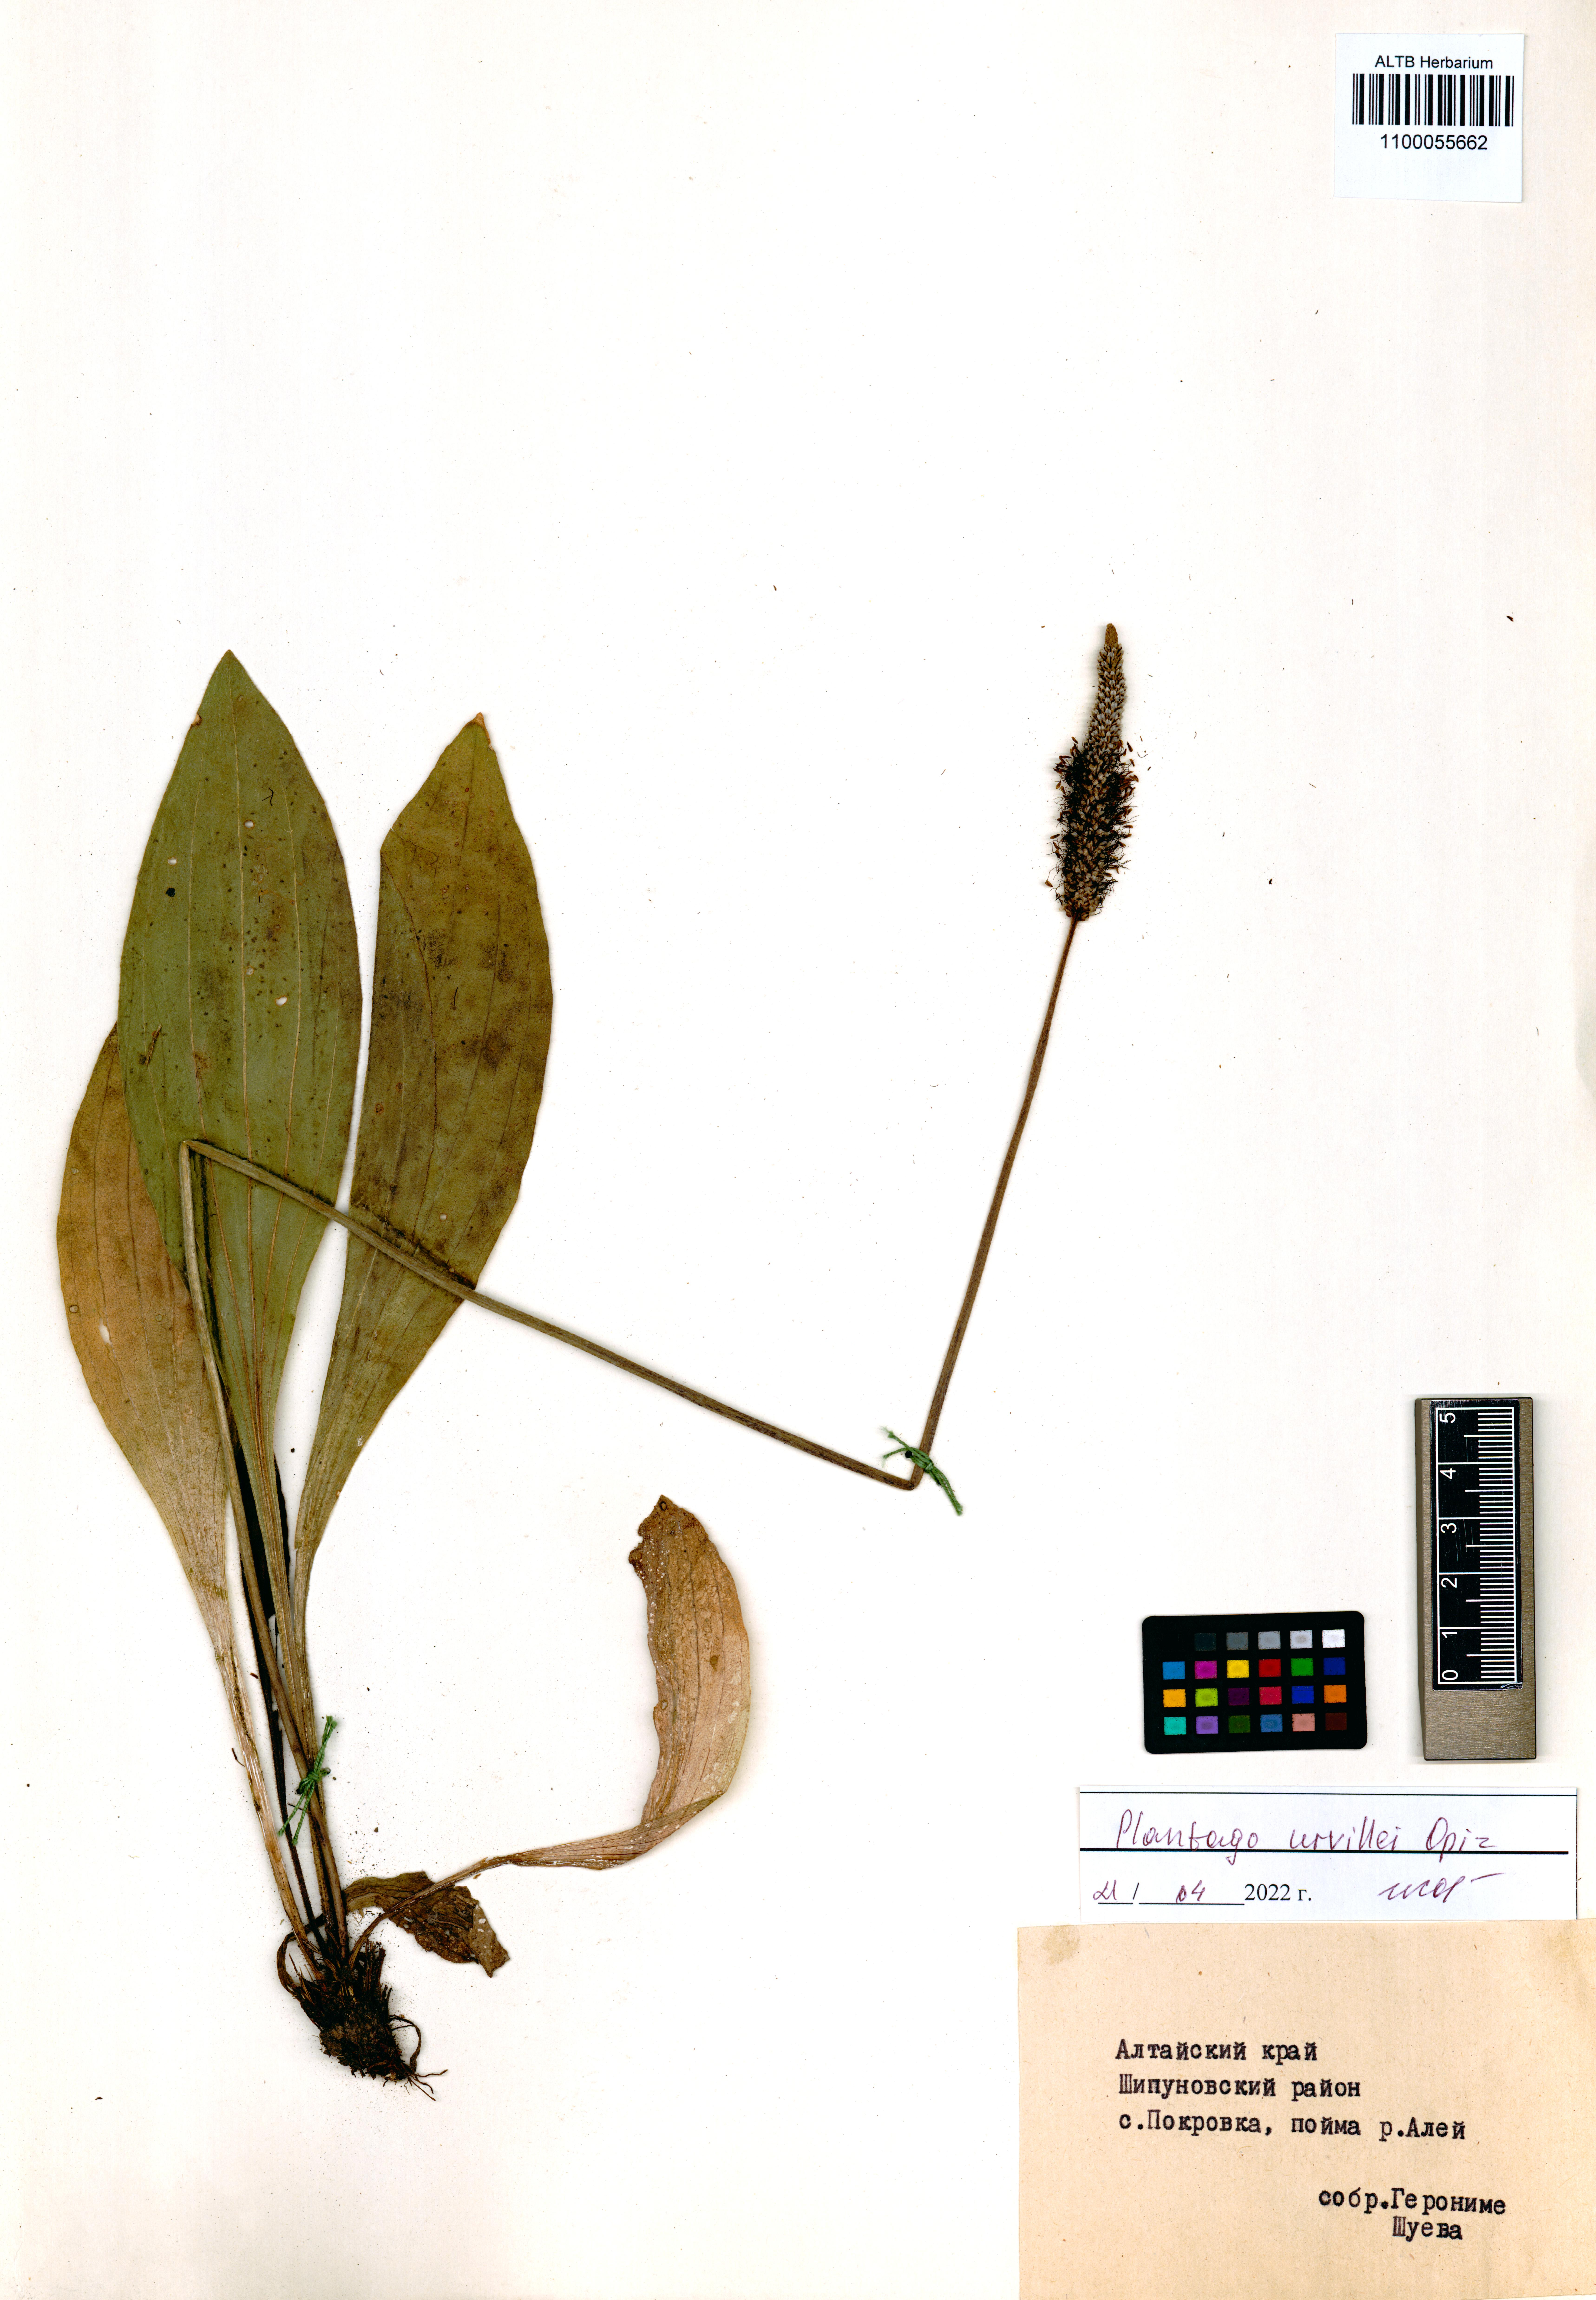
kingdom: Plantae
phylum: Tracheophyta
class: Magnoliopsida
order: Lamiales
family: Plantaginaceae
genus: Plantago
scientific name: Plantago urvillei
